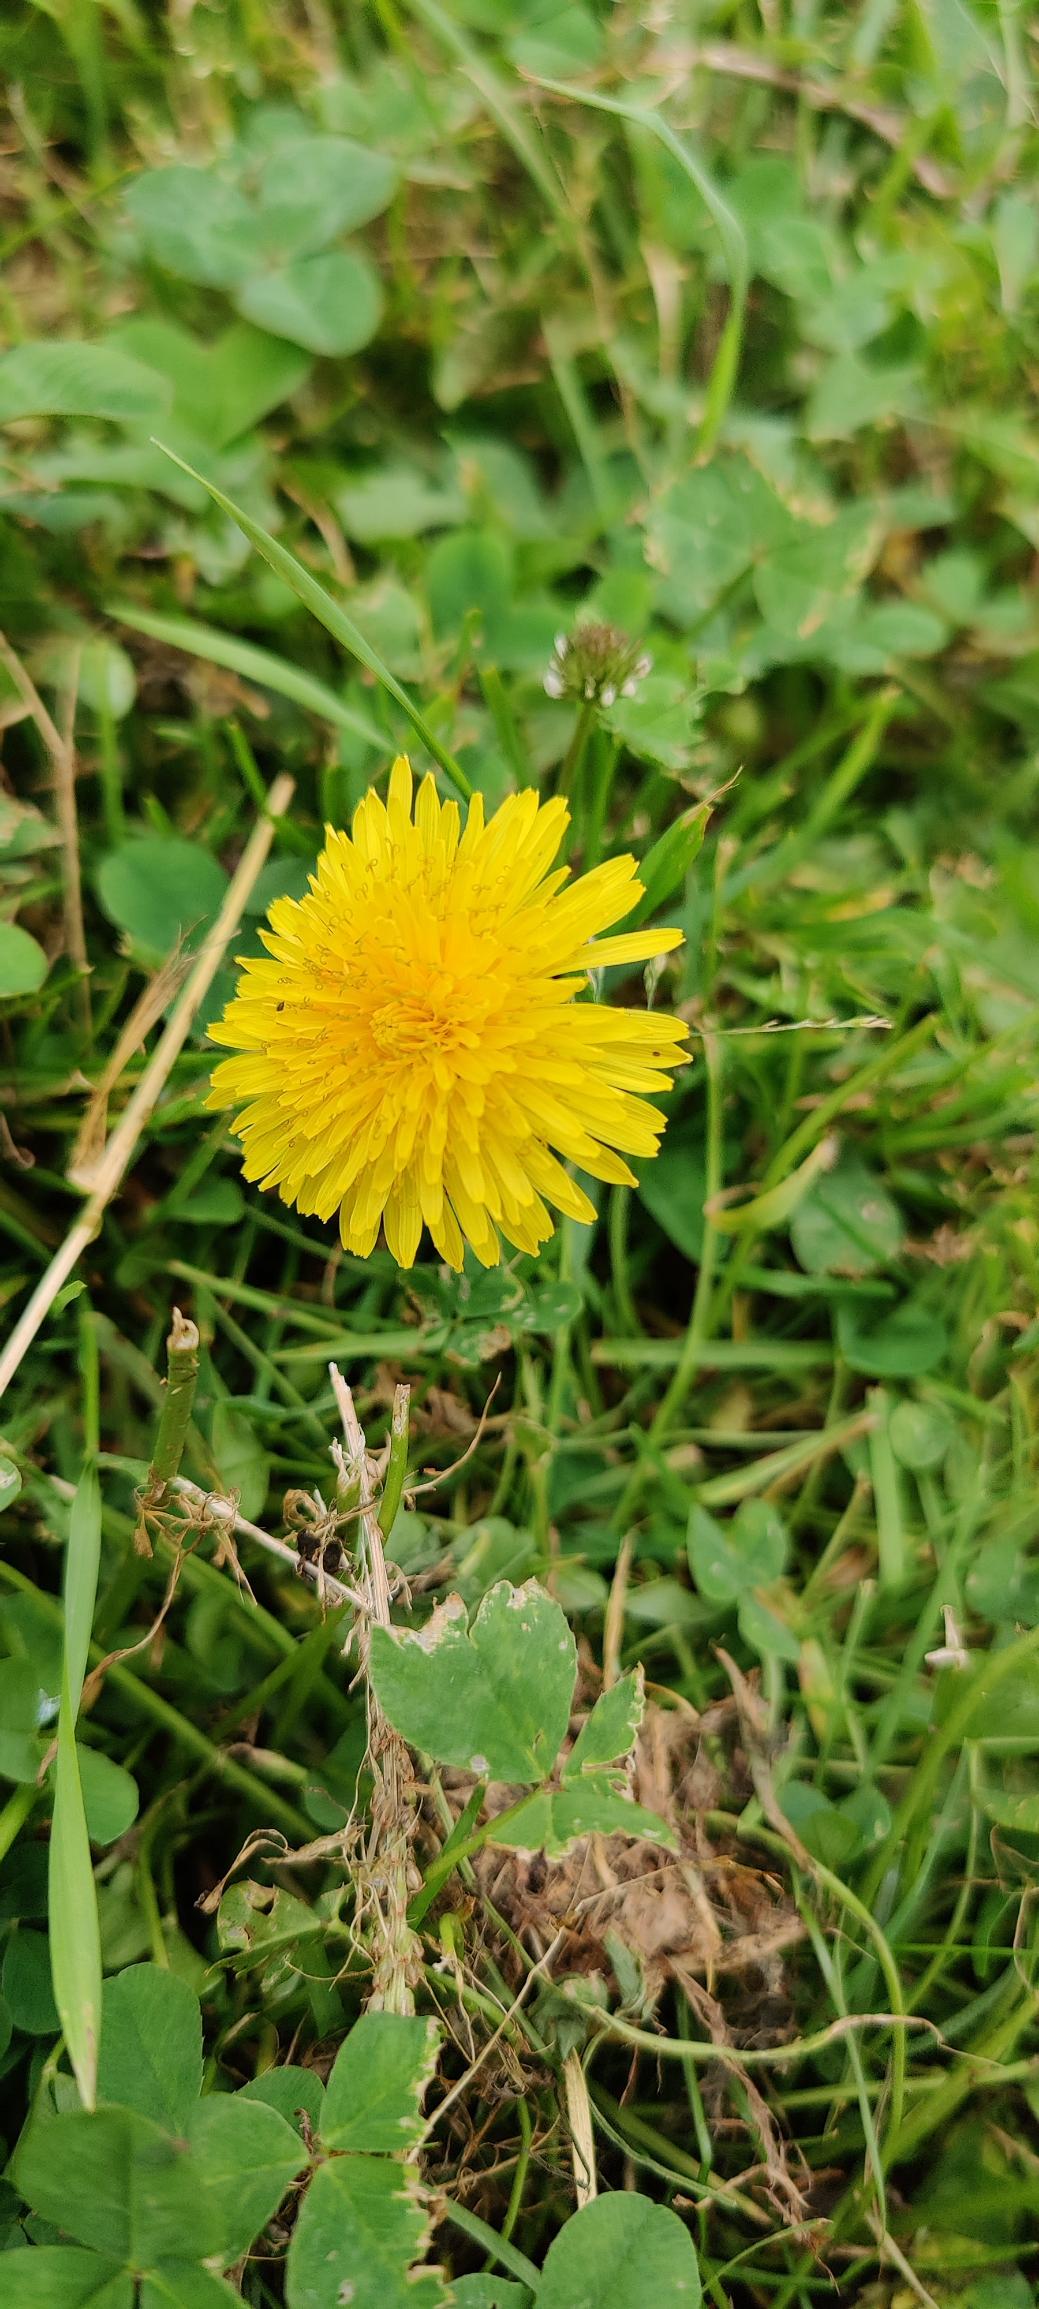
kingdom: Plantae
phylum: Tracheophyta
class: Magnoliopsida
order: Asterales
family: Asteraceae
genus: Taraxacum
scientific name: Taraxacum
